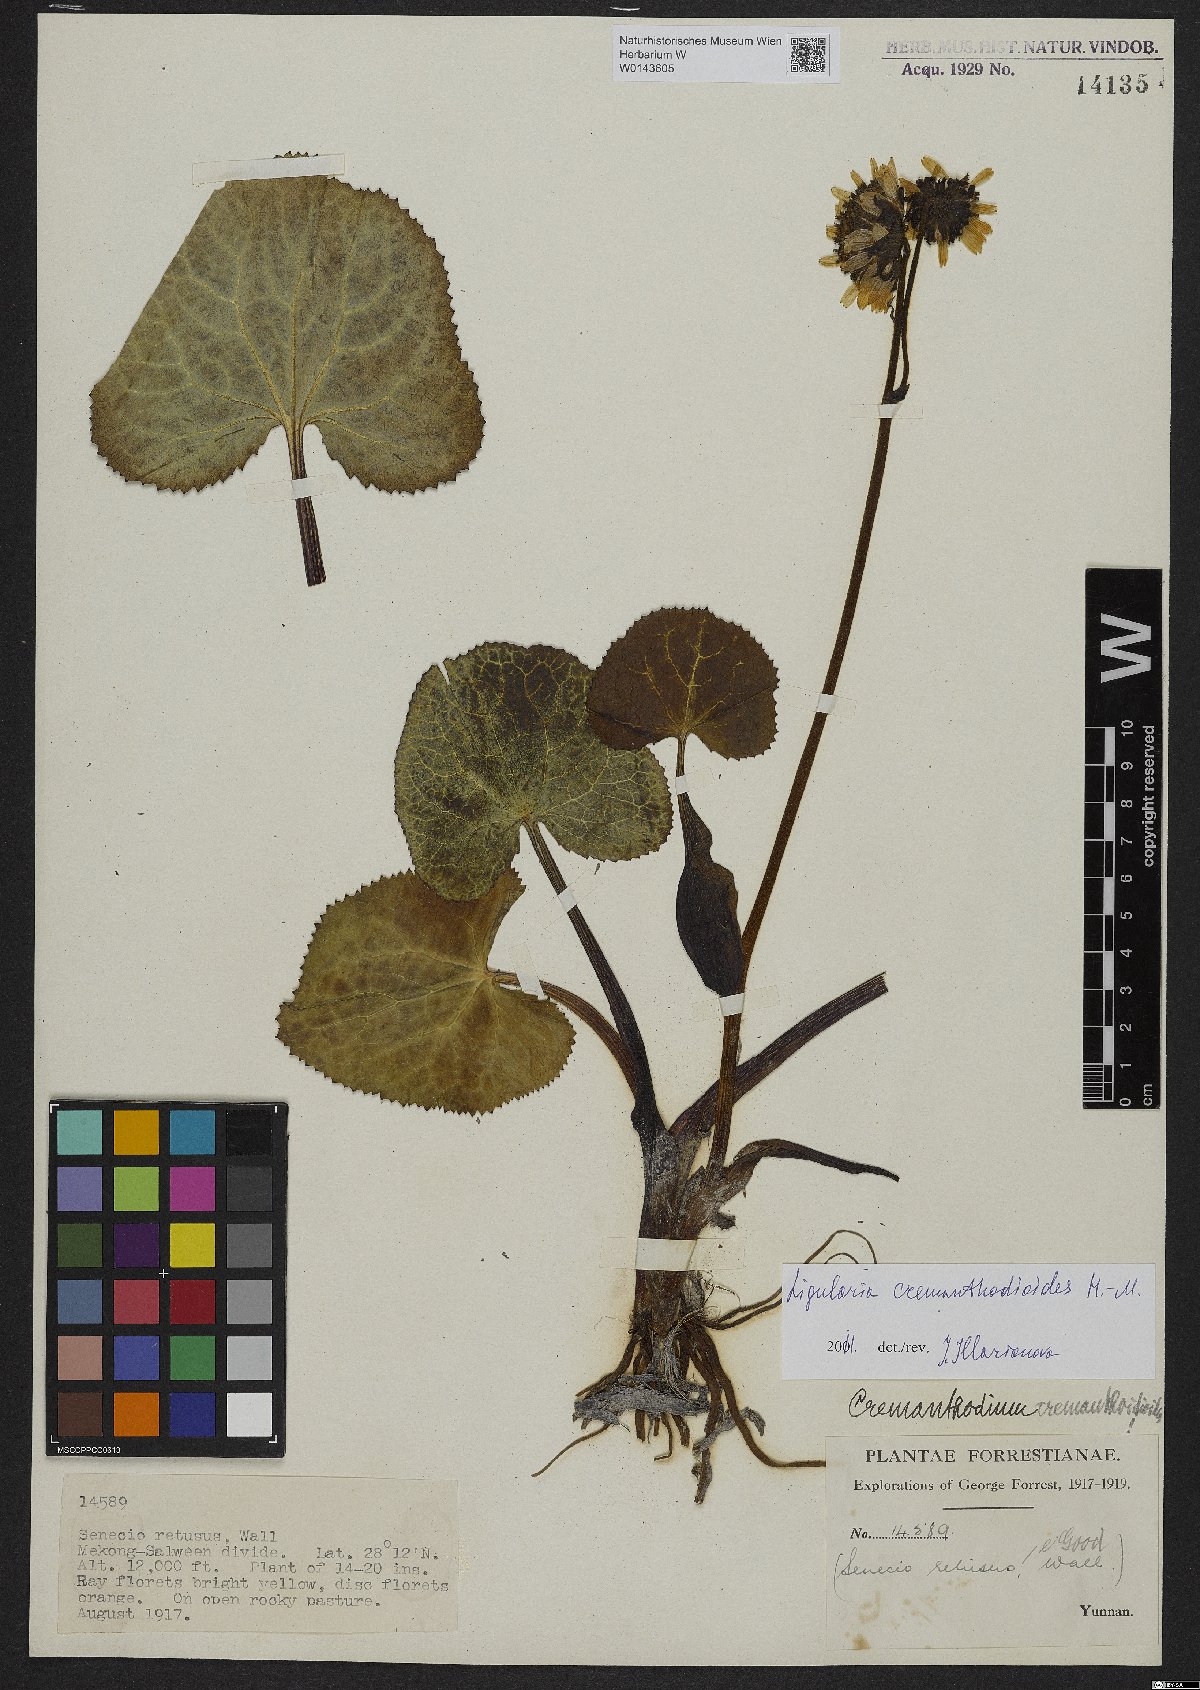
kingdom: Plantae
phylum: Tracheophyta
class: Magnoliopsida
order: Asterales
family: Asteraceae
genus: Ligularia
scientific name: Ligularia cremanthodioides
